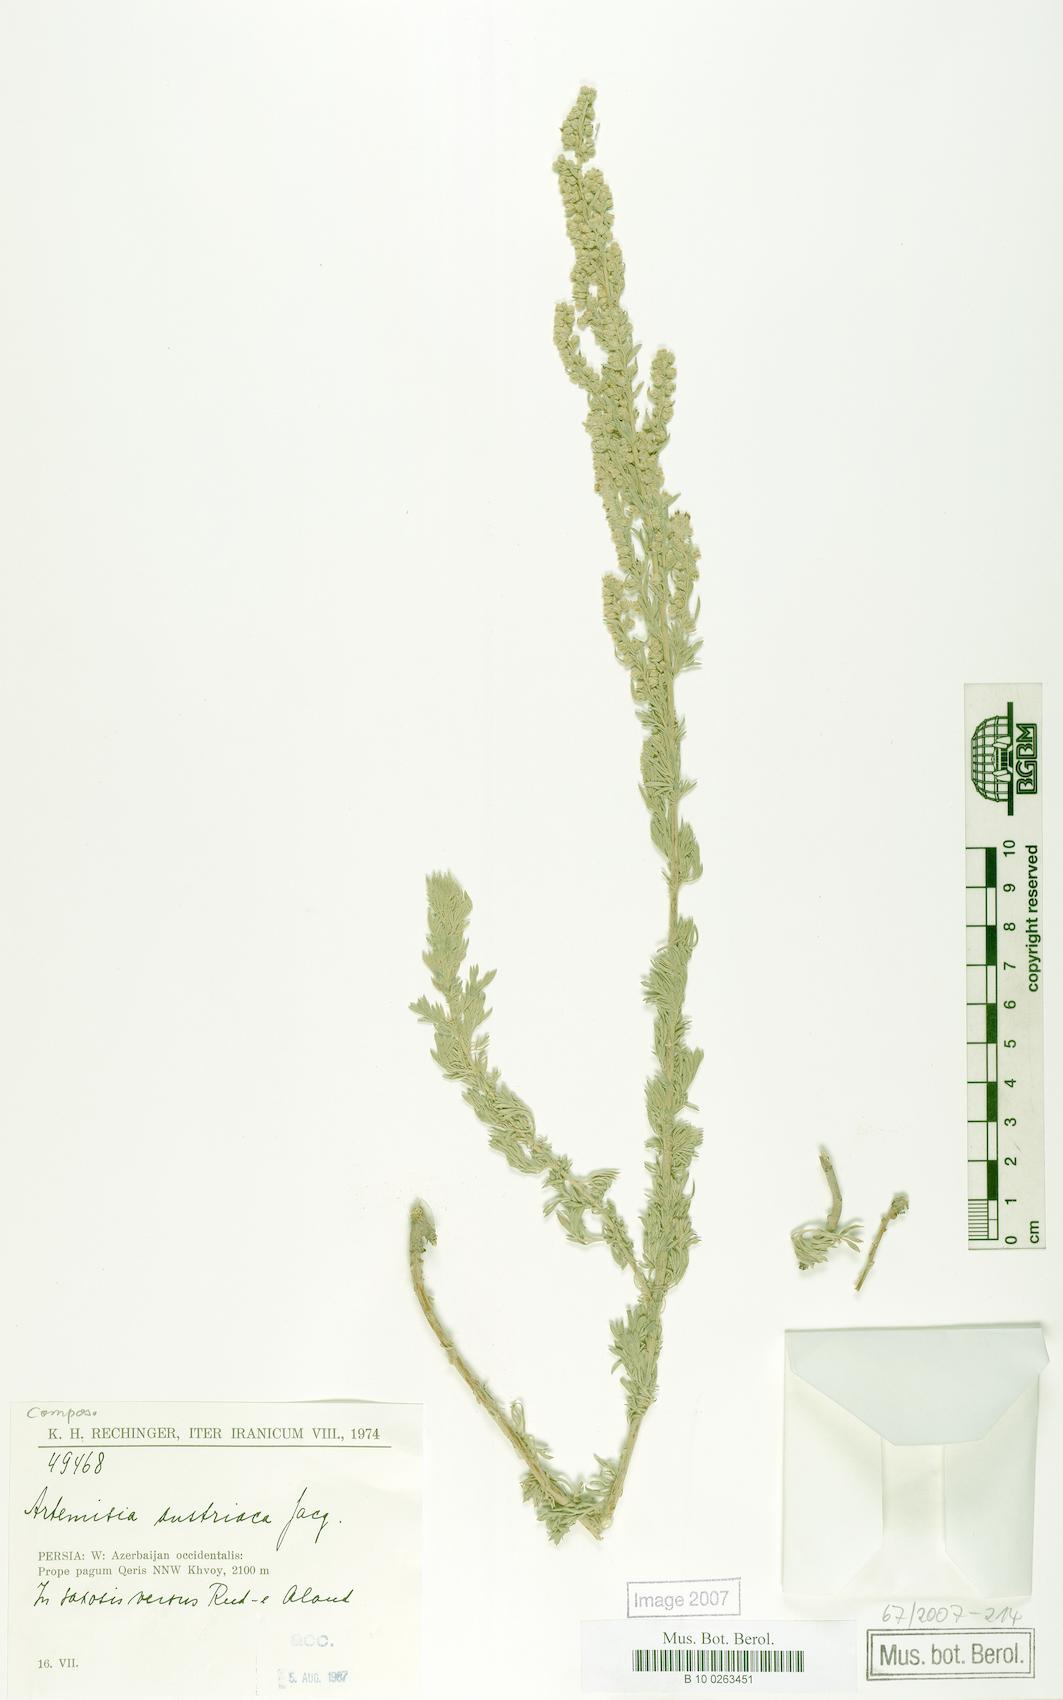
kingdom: Plantae
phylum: Tracheophyta
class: Magnoliopsida
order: Asterales
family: Asteraceae
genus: Artemisia
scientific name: Artemisia austriaca
